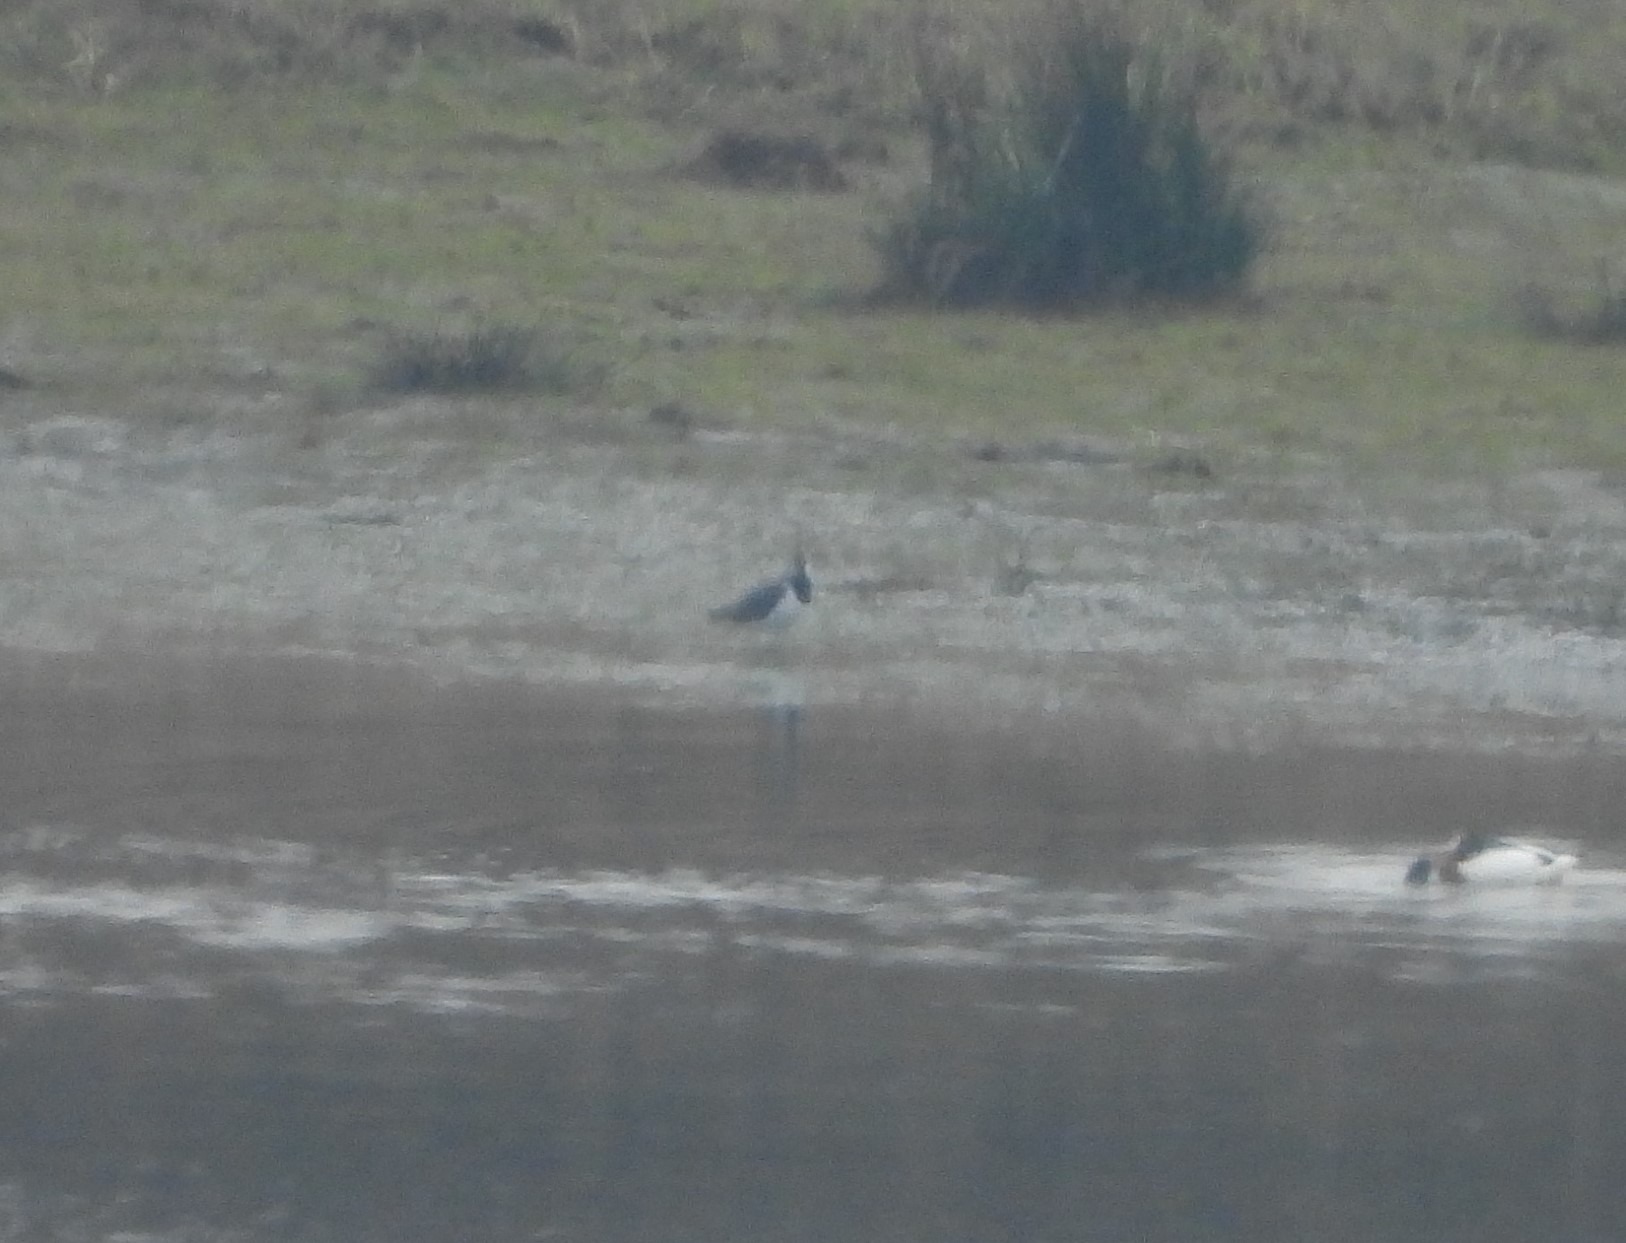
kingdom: Animalia
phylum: Chordata
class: Aves
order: Charadriiformes
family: Charadriidae
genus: Vanellus
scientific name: Vanellus vanellus
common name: Vibe
